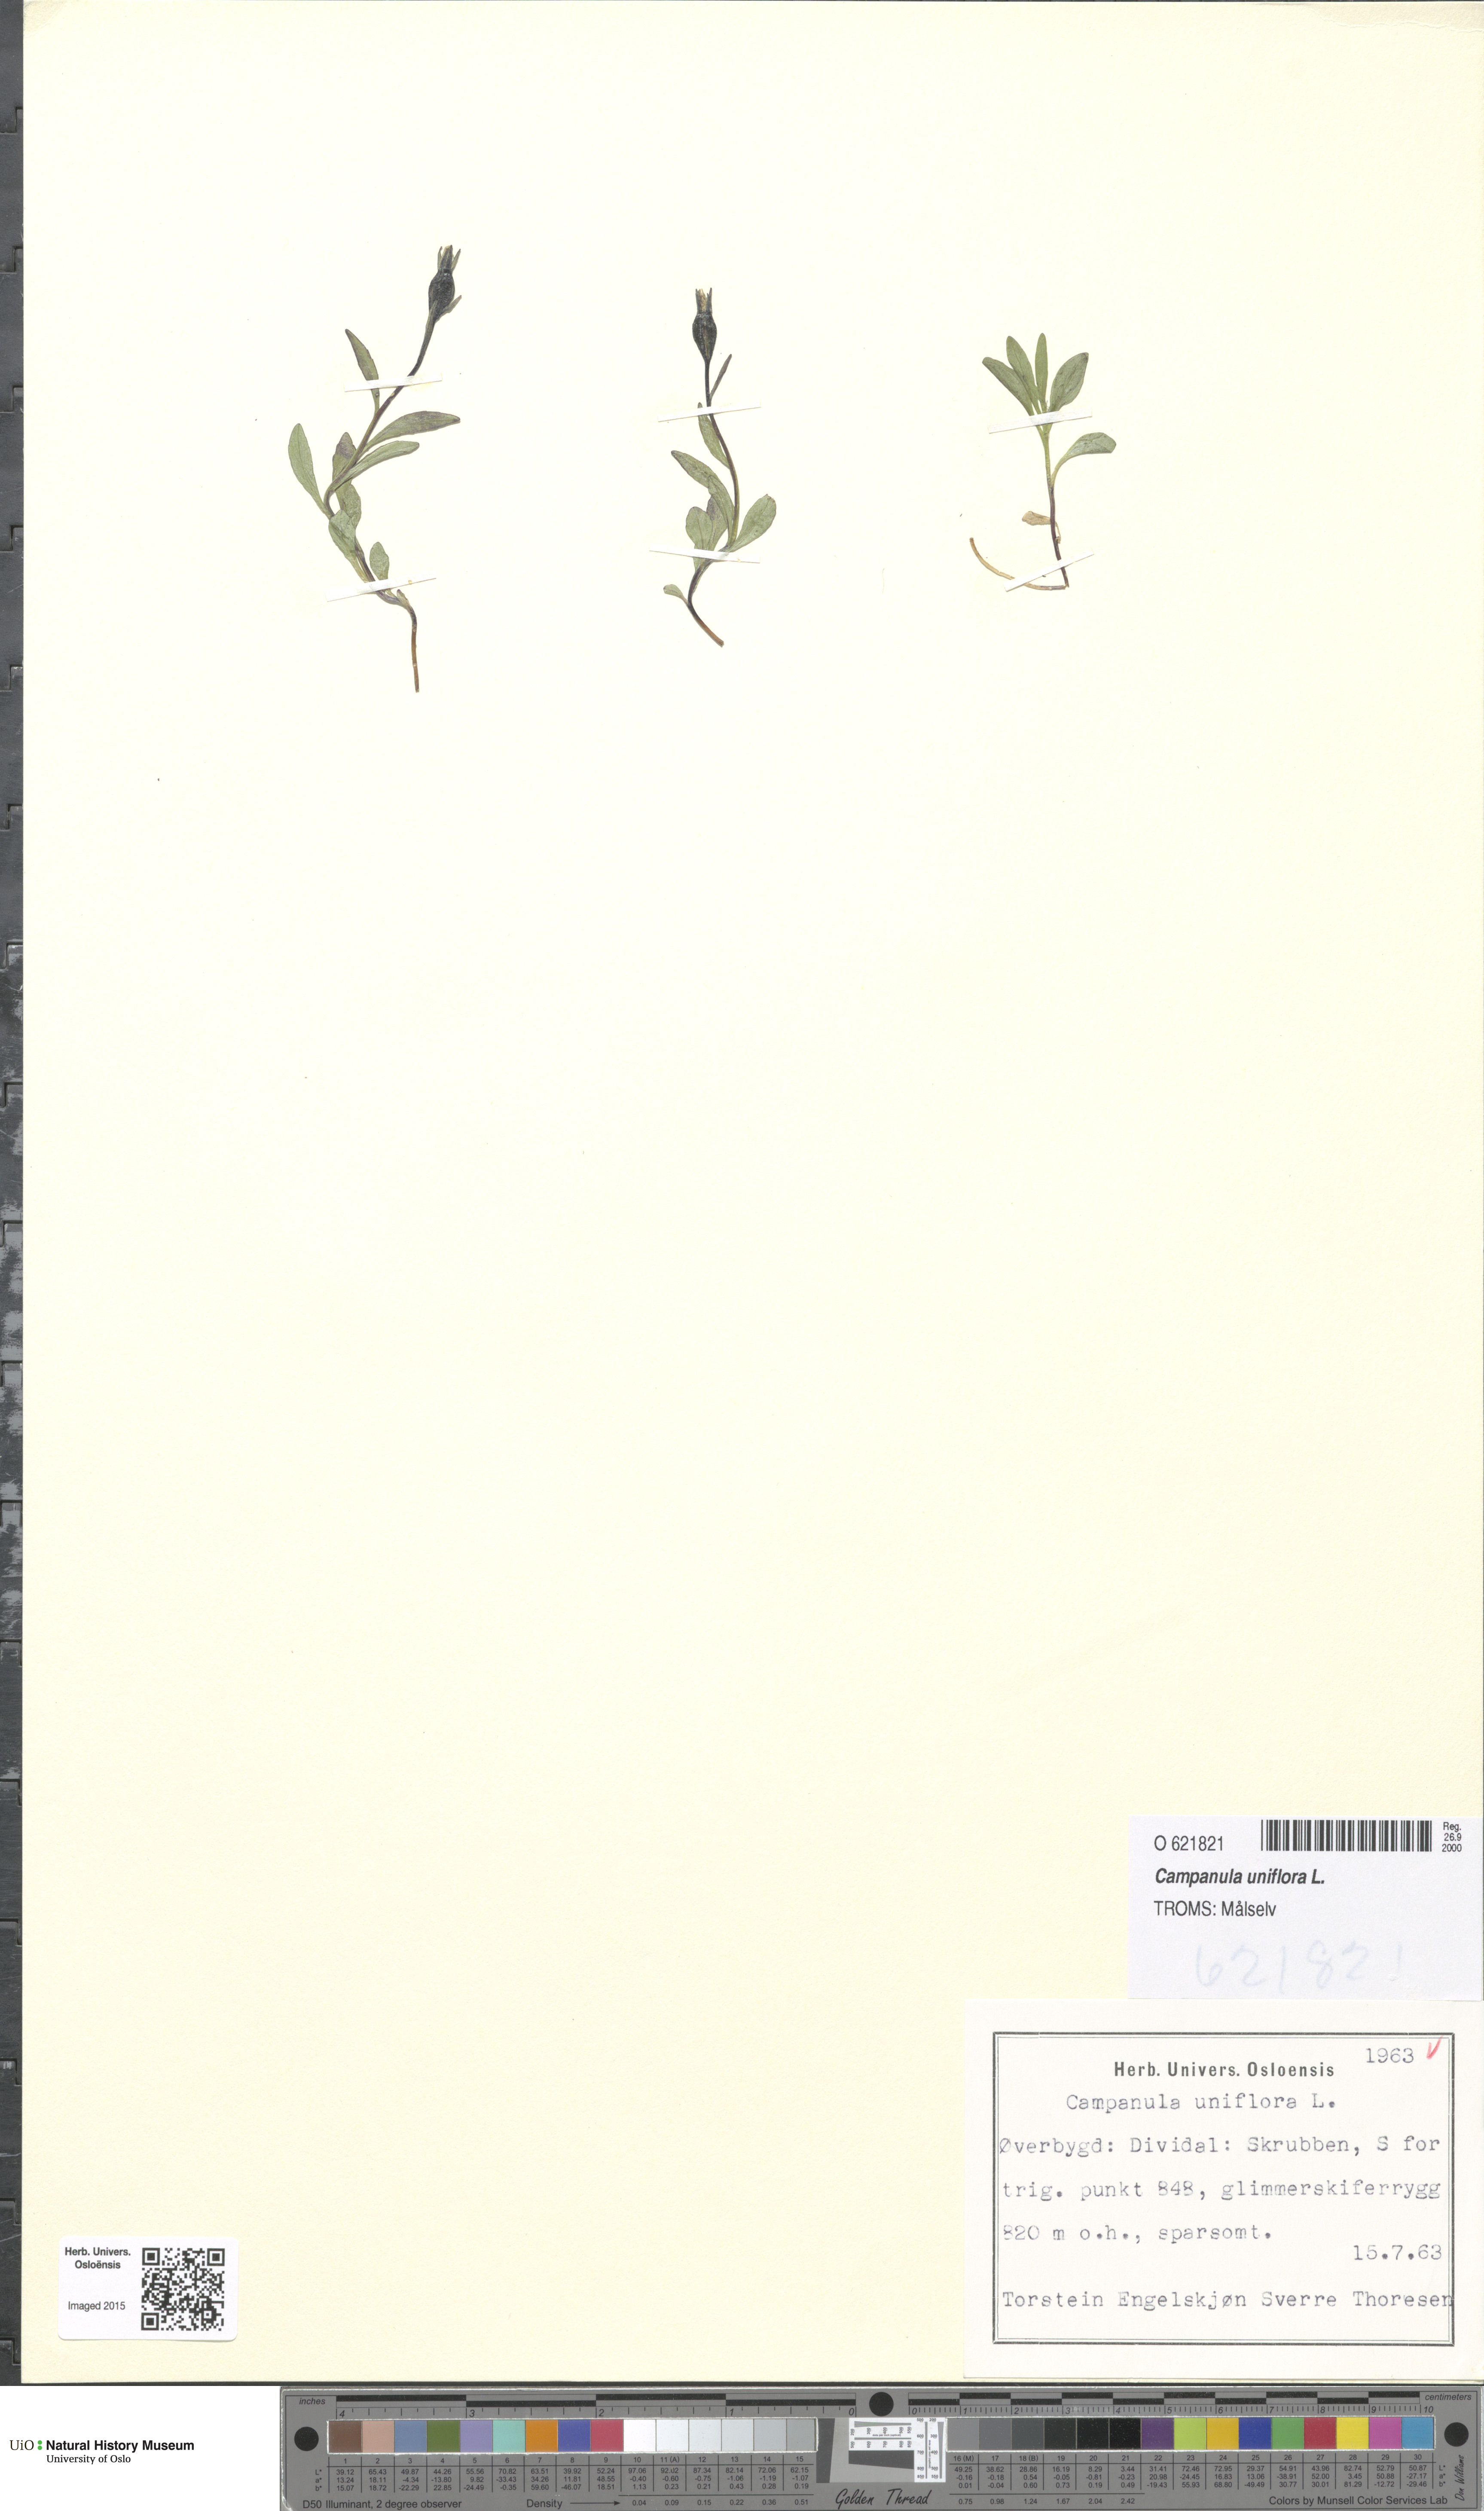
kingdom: Plantae
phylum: Tracheophyta
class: Magnoliopsida
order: Asterales
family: Campanulaceae
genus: Melanocalyx
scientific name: Melanocalyx uniflora
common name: Alpine harebell
